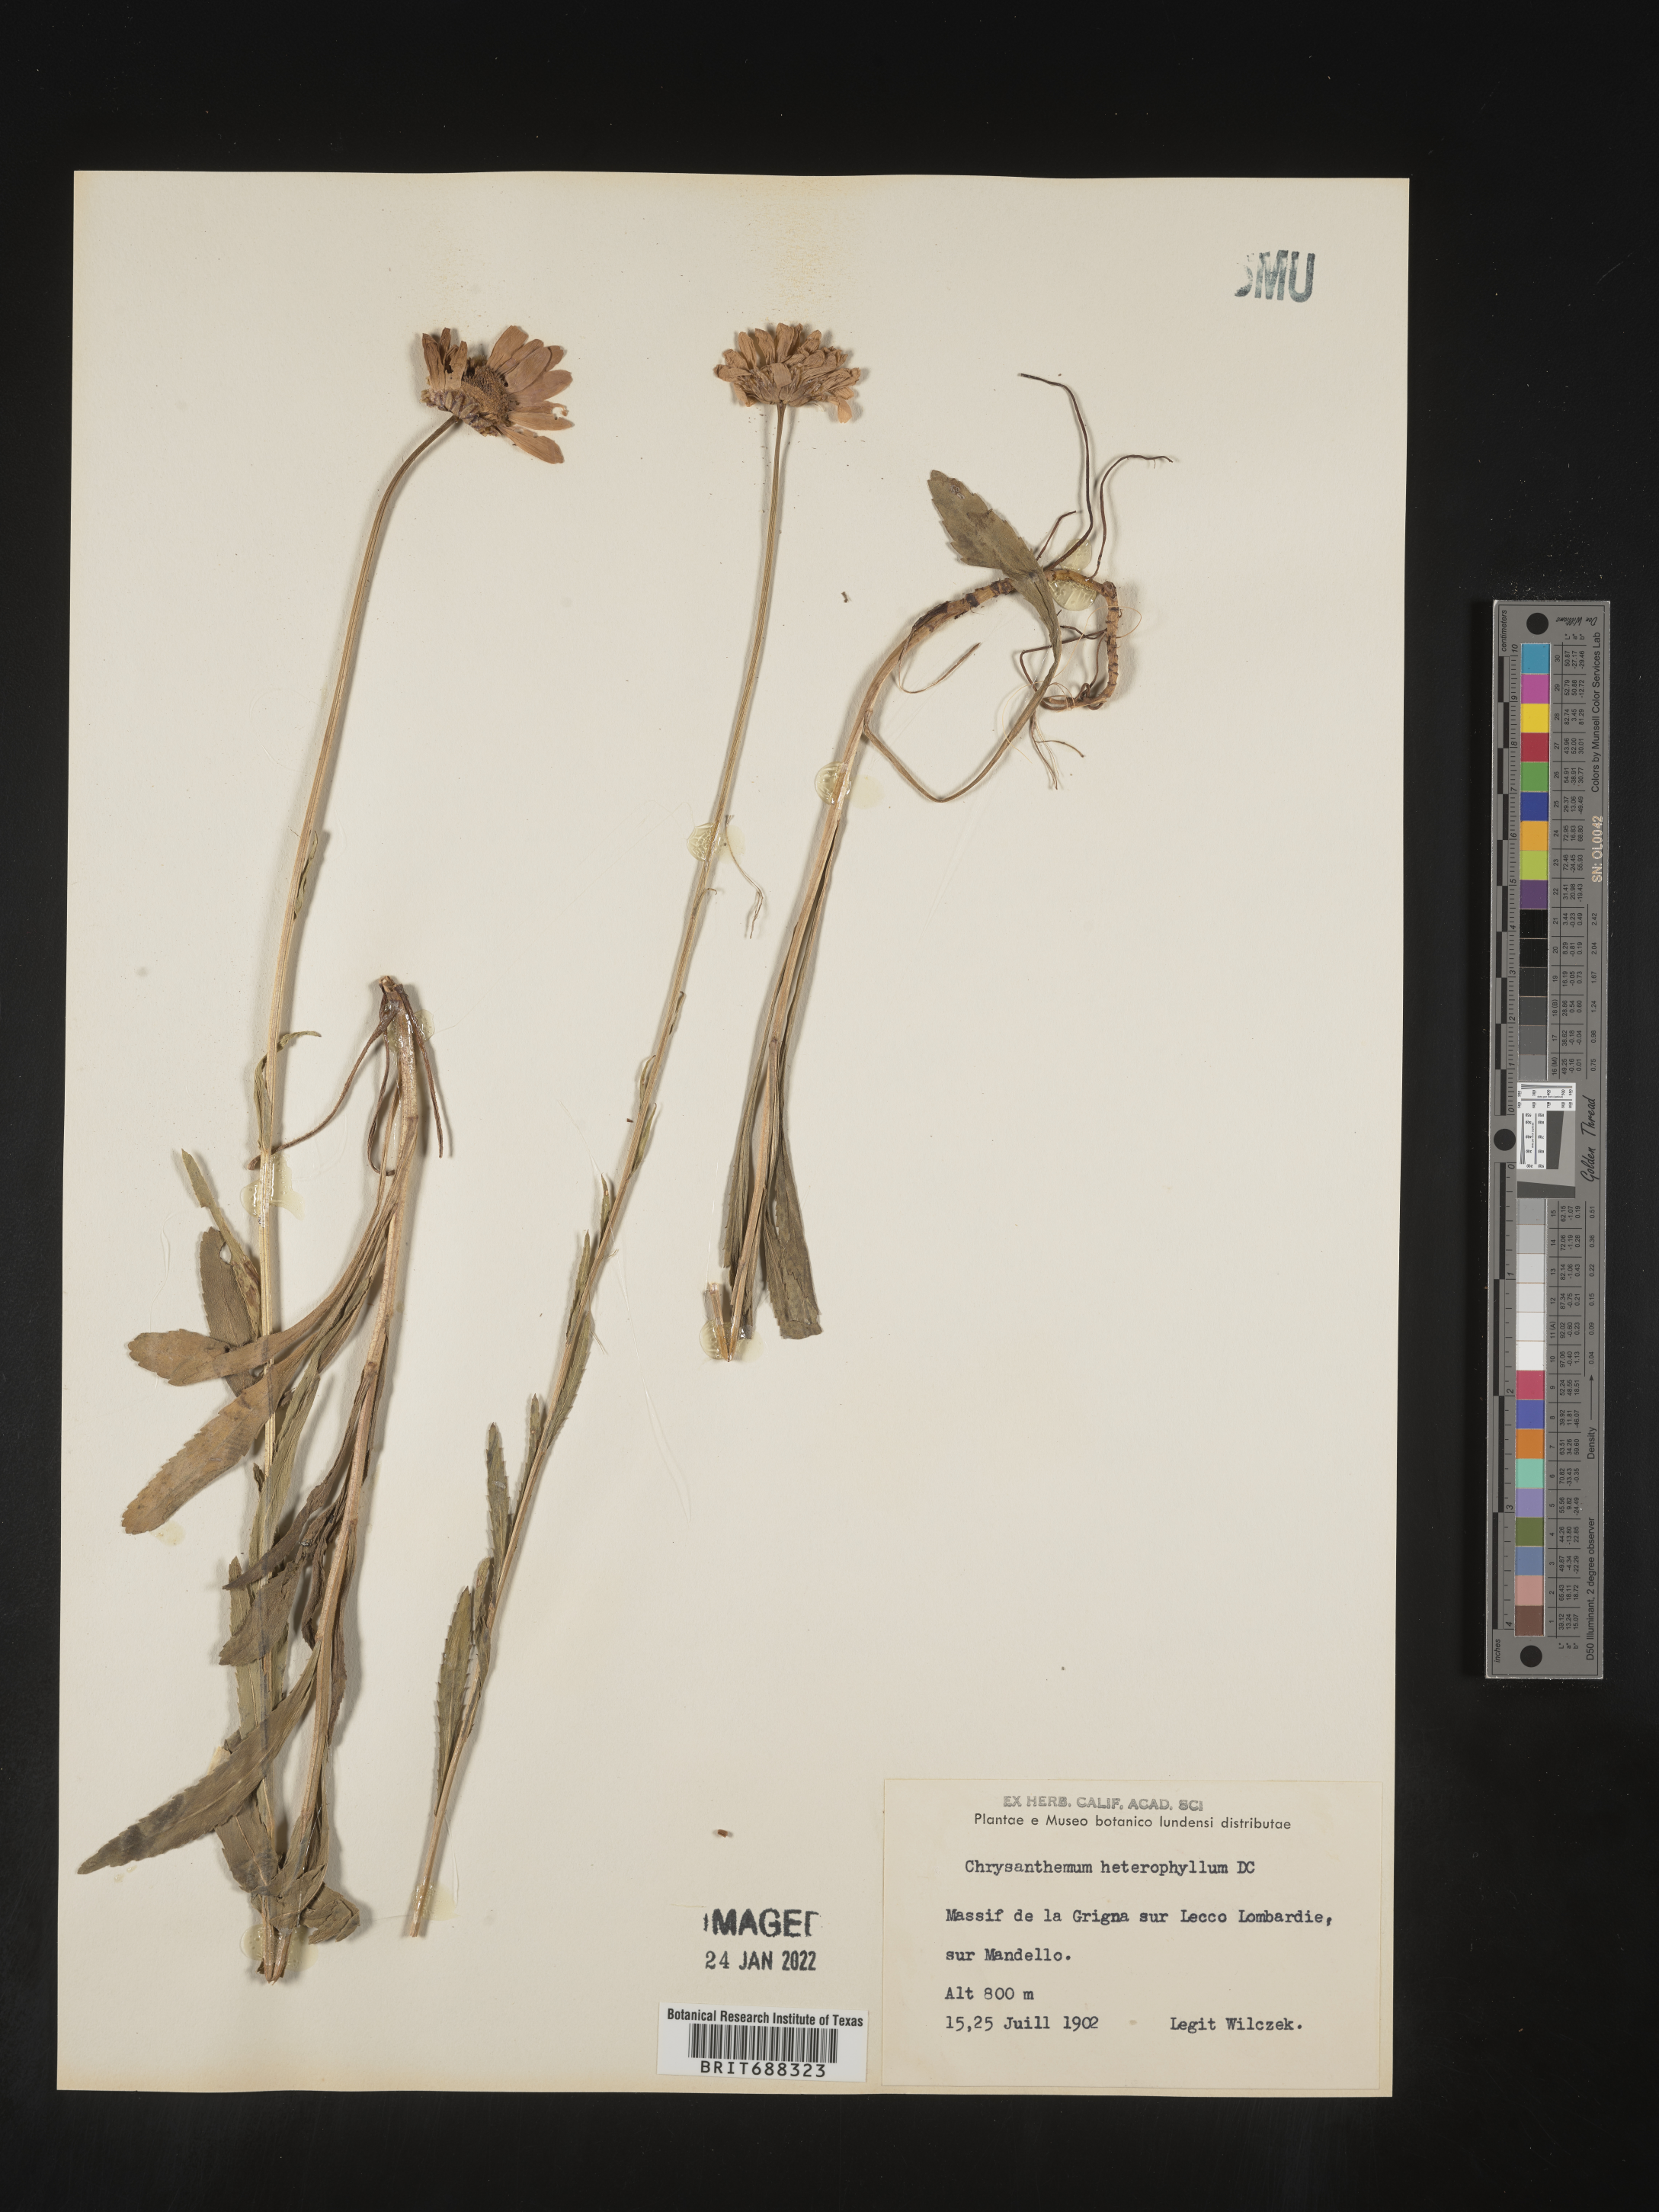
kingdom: Plantae
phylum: Tracheophyta
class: Magnoliopsida
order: Asterales
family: Asteraceae
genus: Chrysanthemum
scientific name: Chrysanthemum
